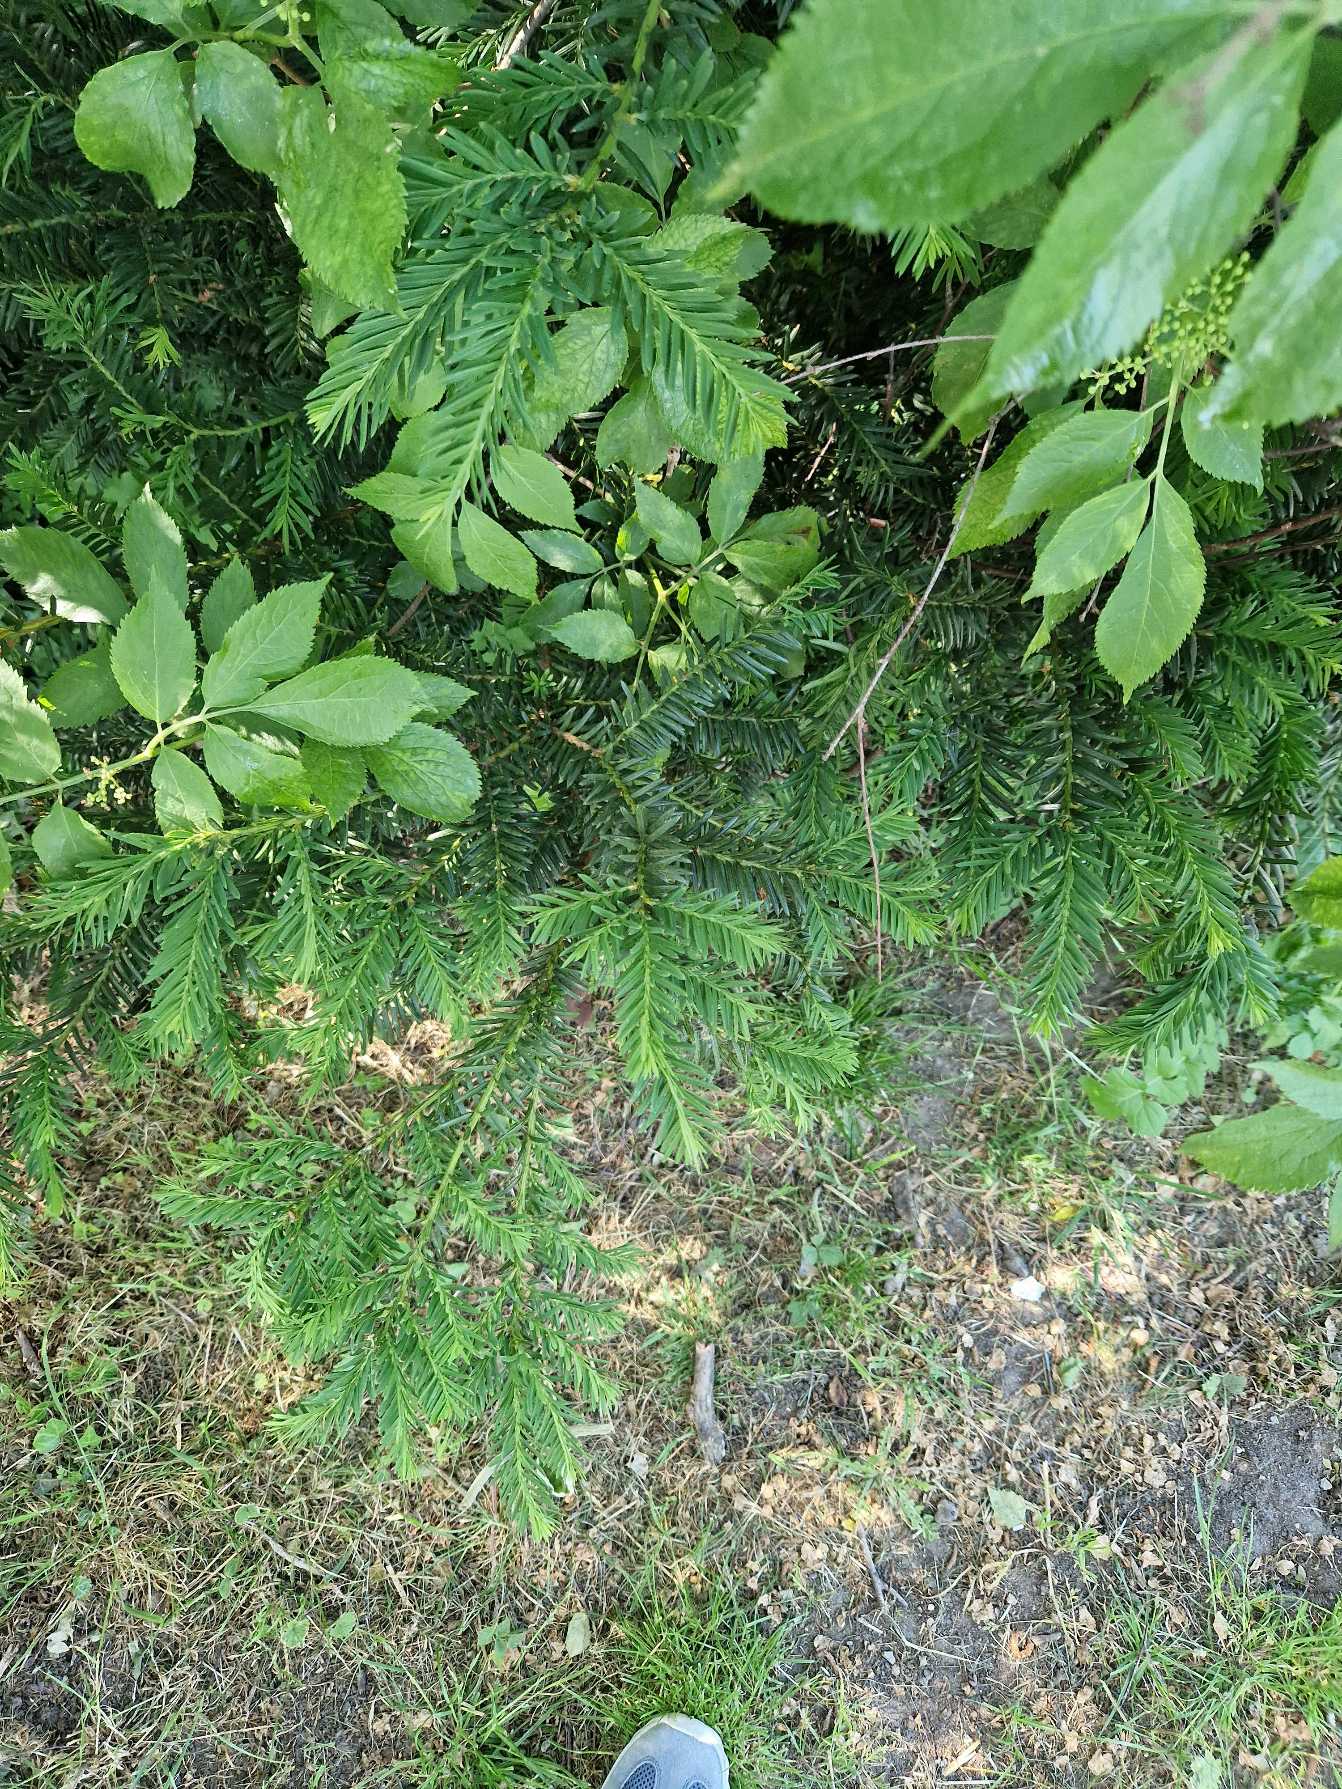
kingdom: Plantae
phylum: Tracheophyta
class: Pinopsida
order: Pinales
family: Taxaceae
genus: Taxus
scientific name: Taxus baccata
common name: Almindelig taks
